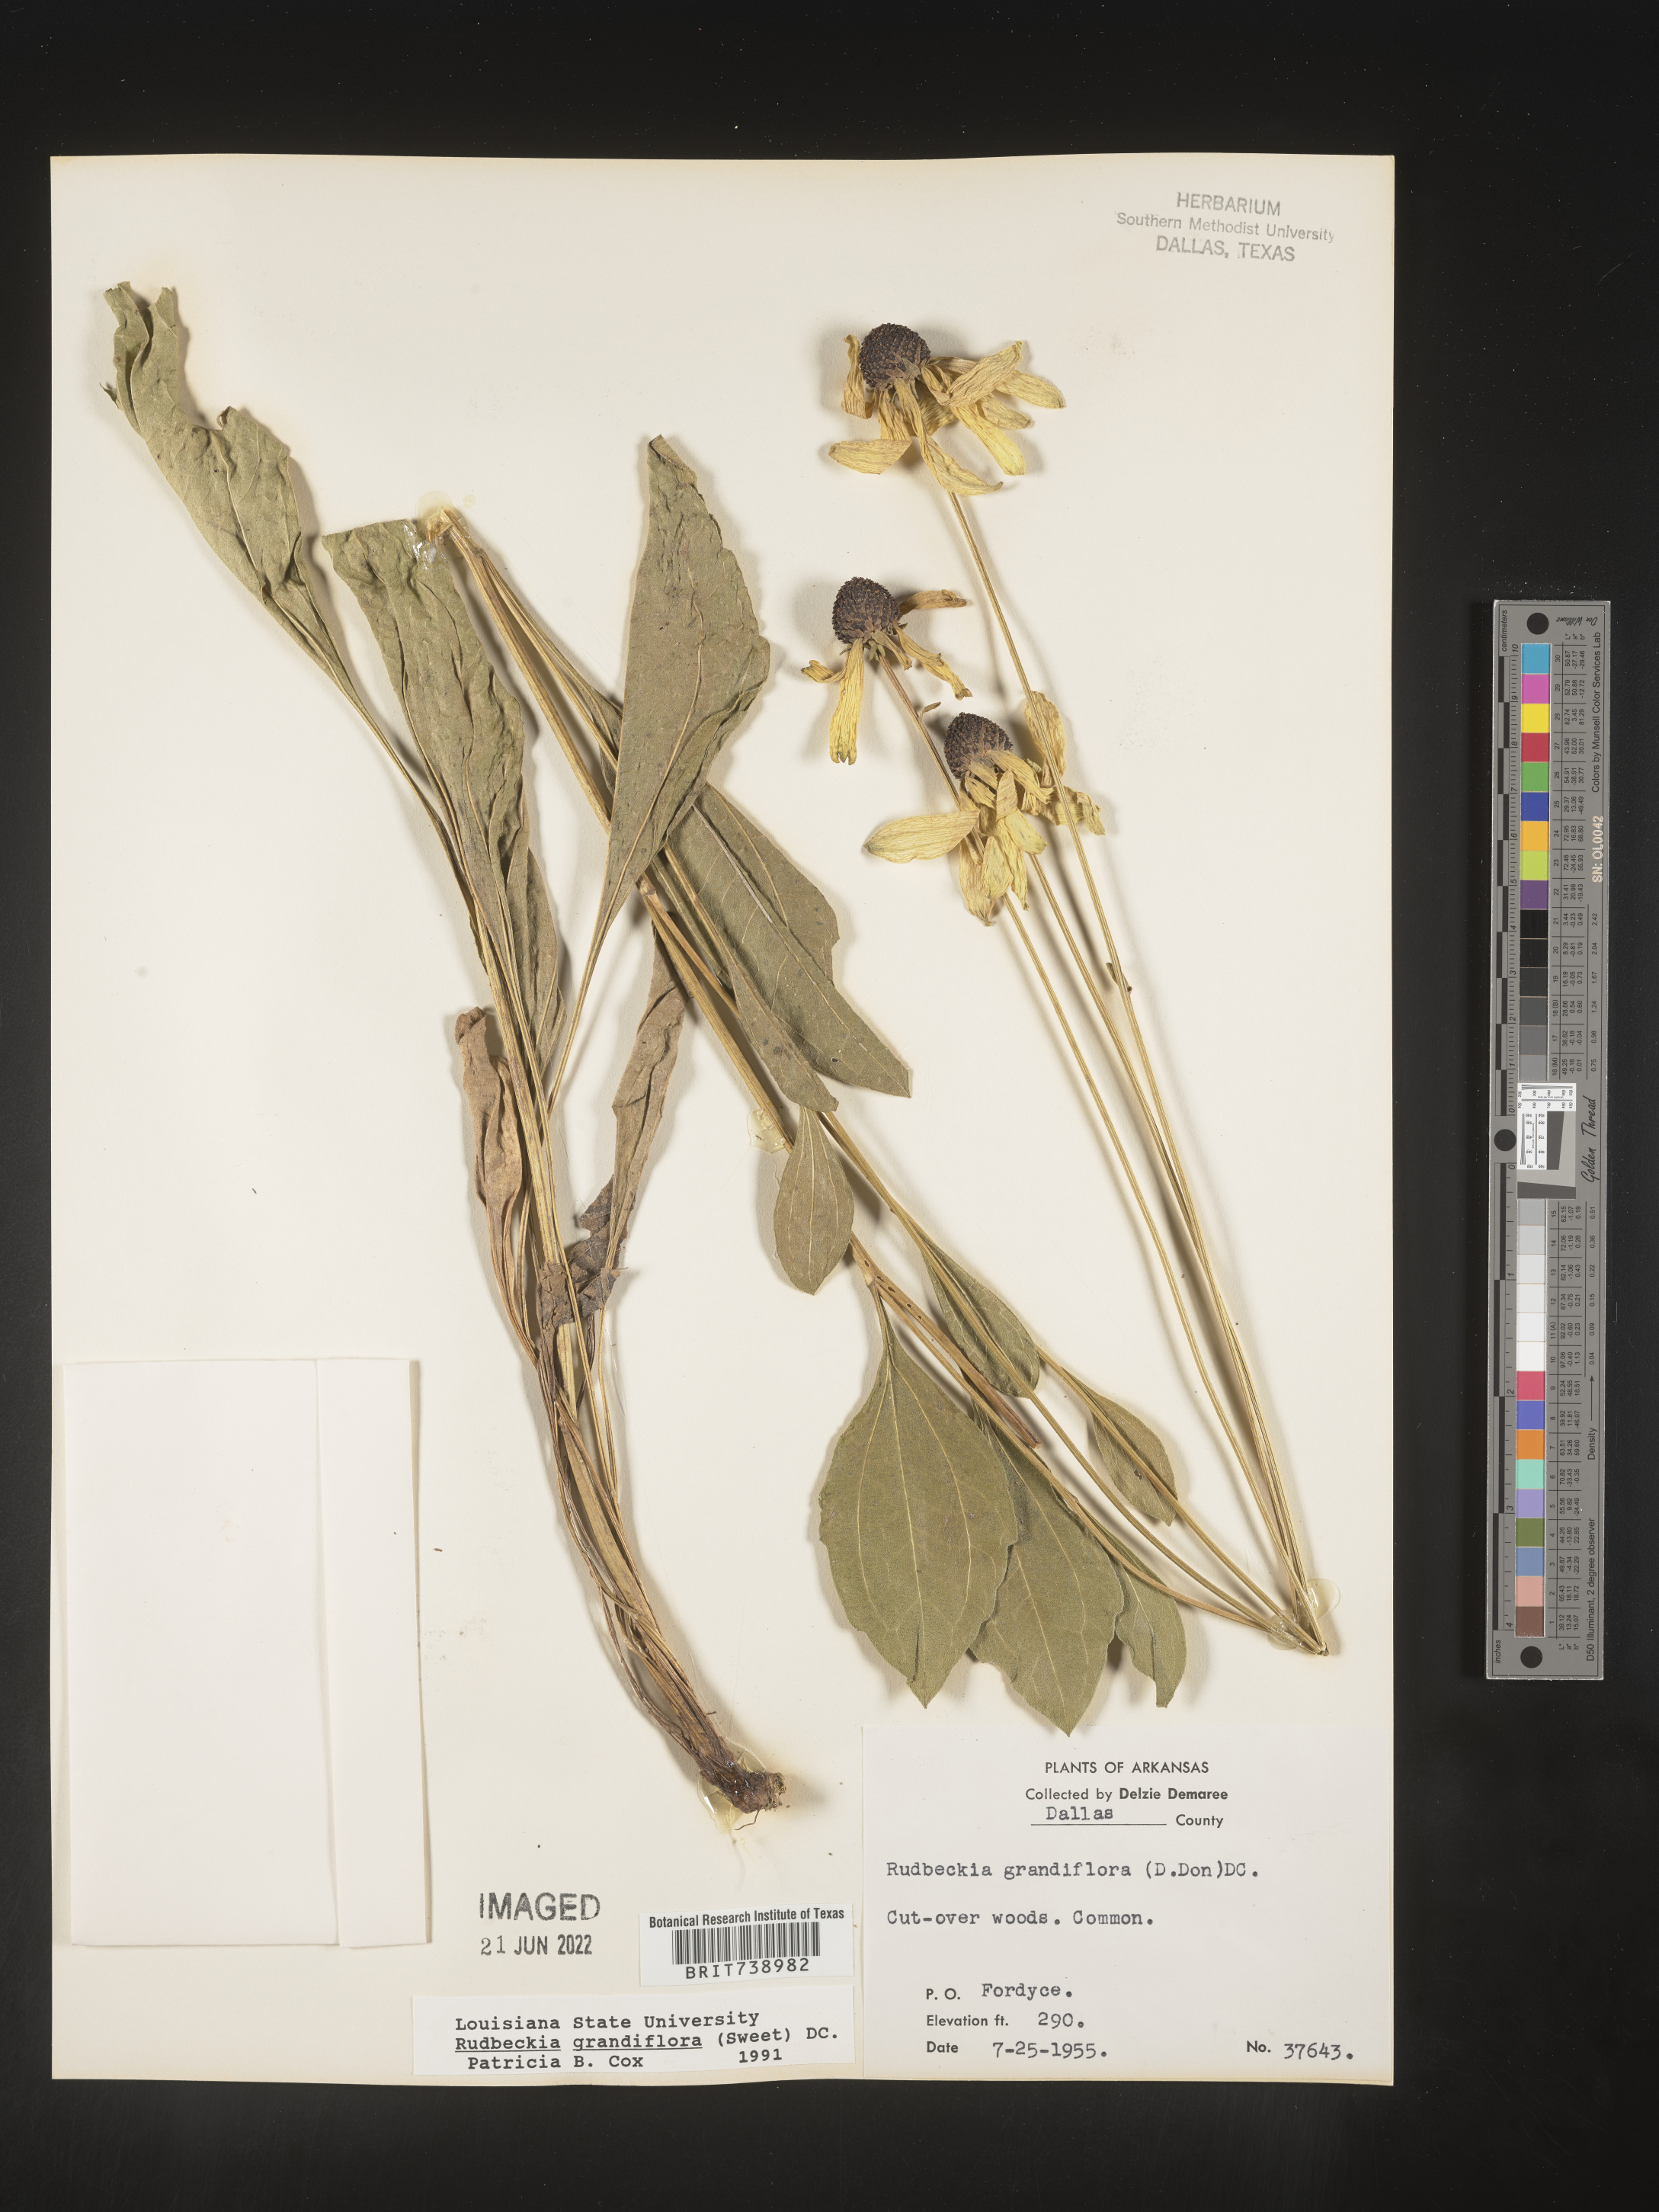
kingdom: Plantae
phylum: Tracheophyta
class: Magnoliopsida
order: Asterales
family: Asteraceae
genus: Rudbeckia
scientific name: Rudbeckia grandiflora
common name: Large-flowered coneflower
